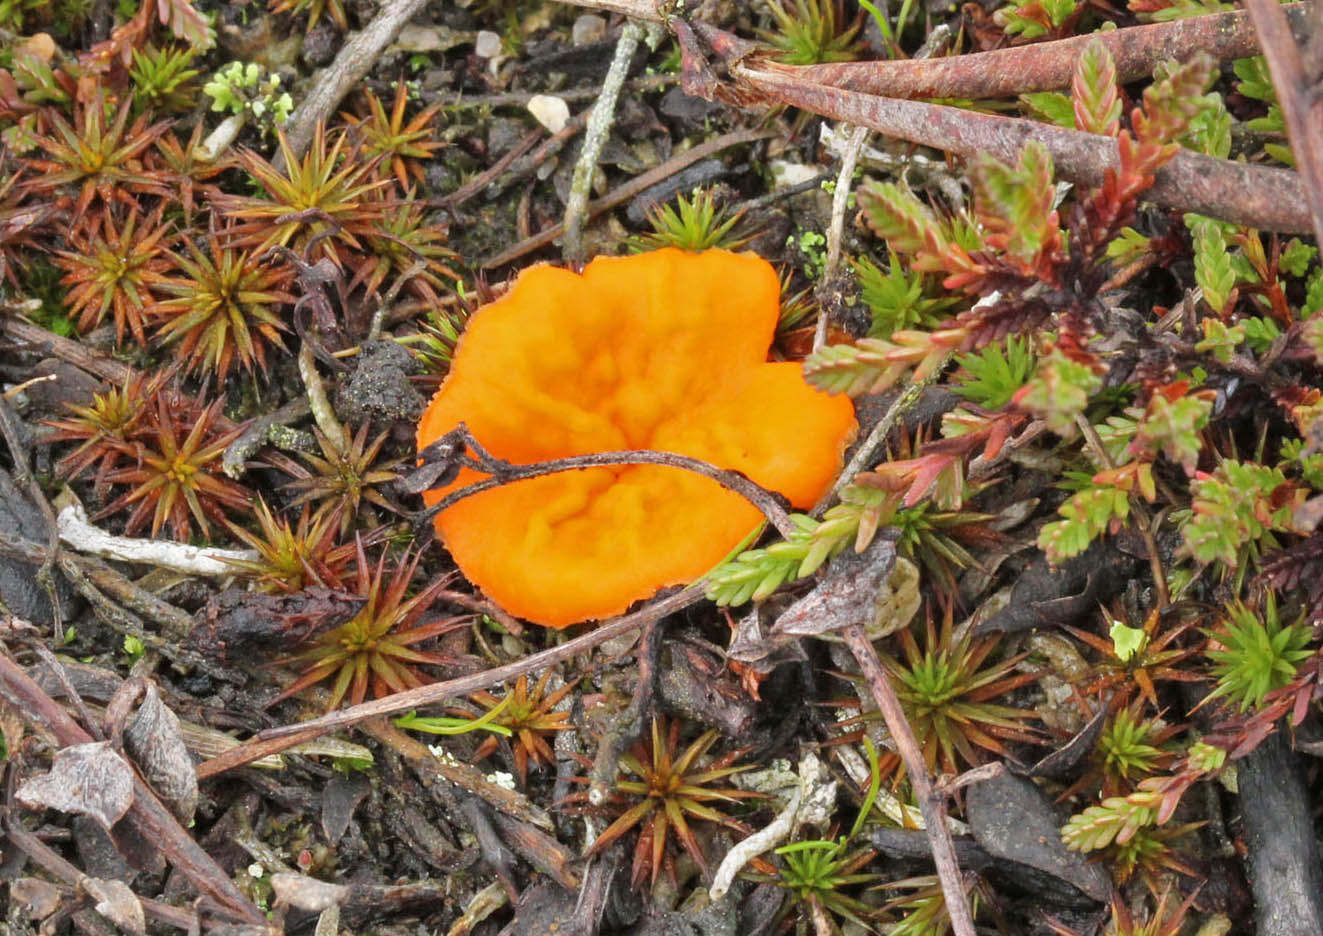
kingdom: Fungi
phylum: Ascomycota
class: Pezizomycetes
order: Pezizales
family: Pyronemataceae
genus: Neottiella
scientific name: Neottiella rutilans
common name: jomfruhår-mosbæger
